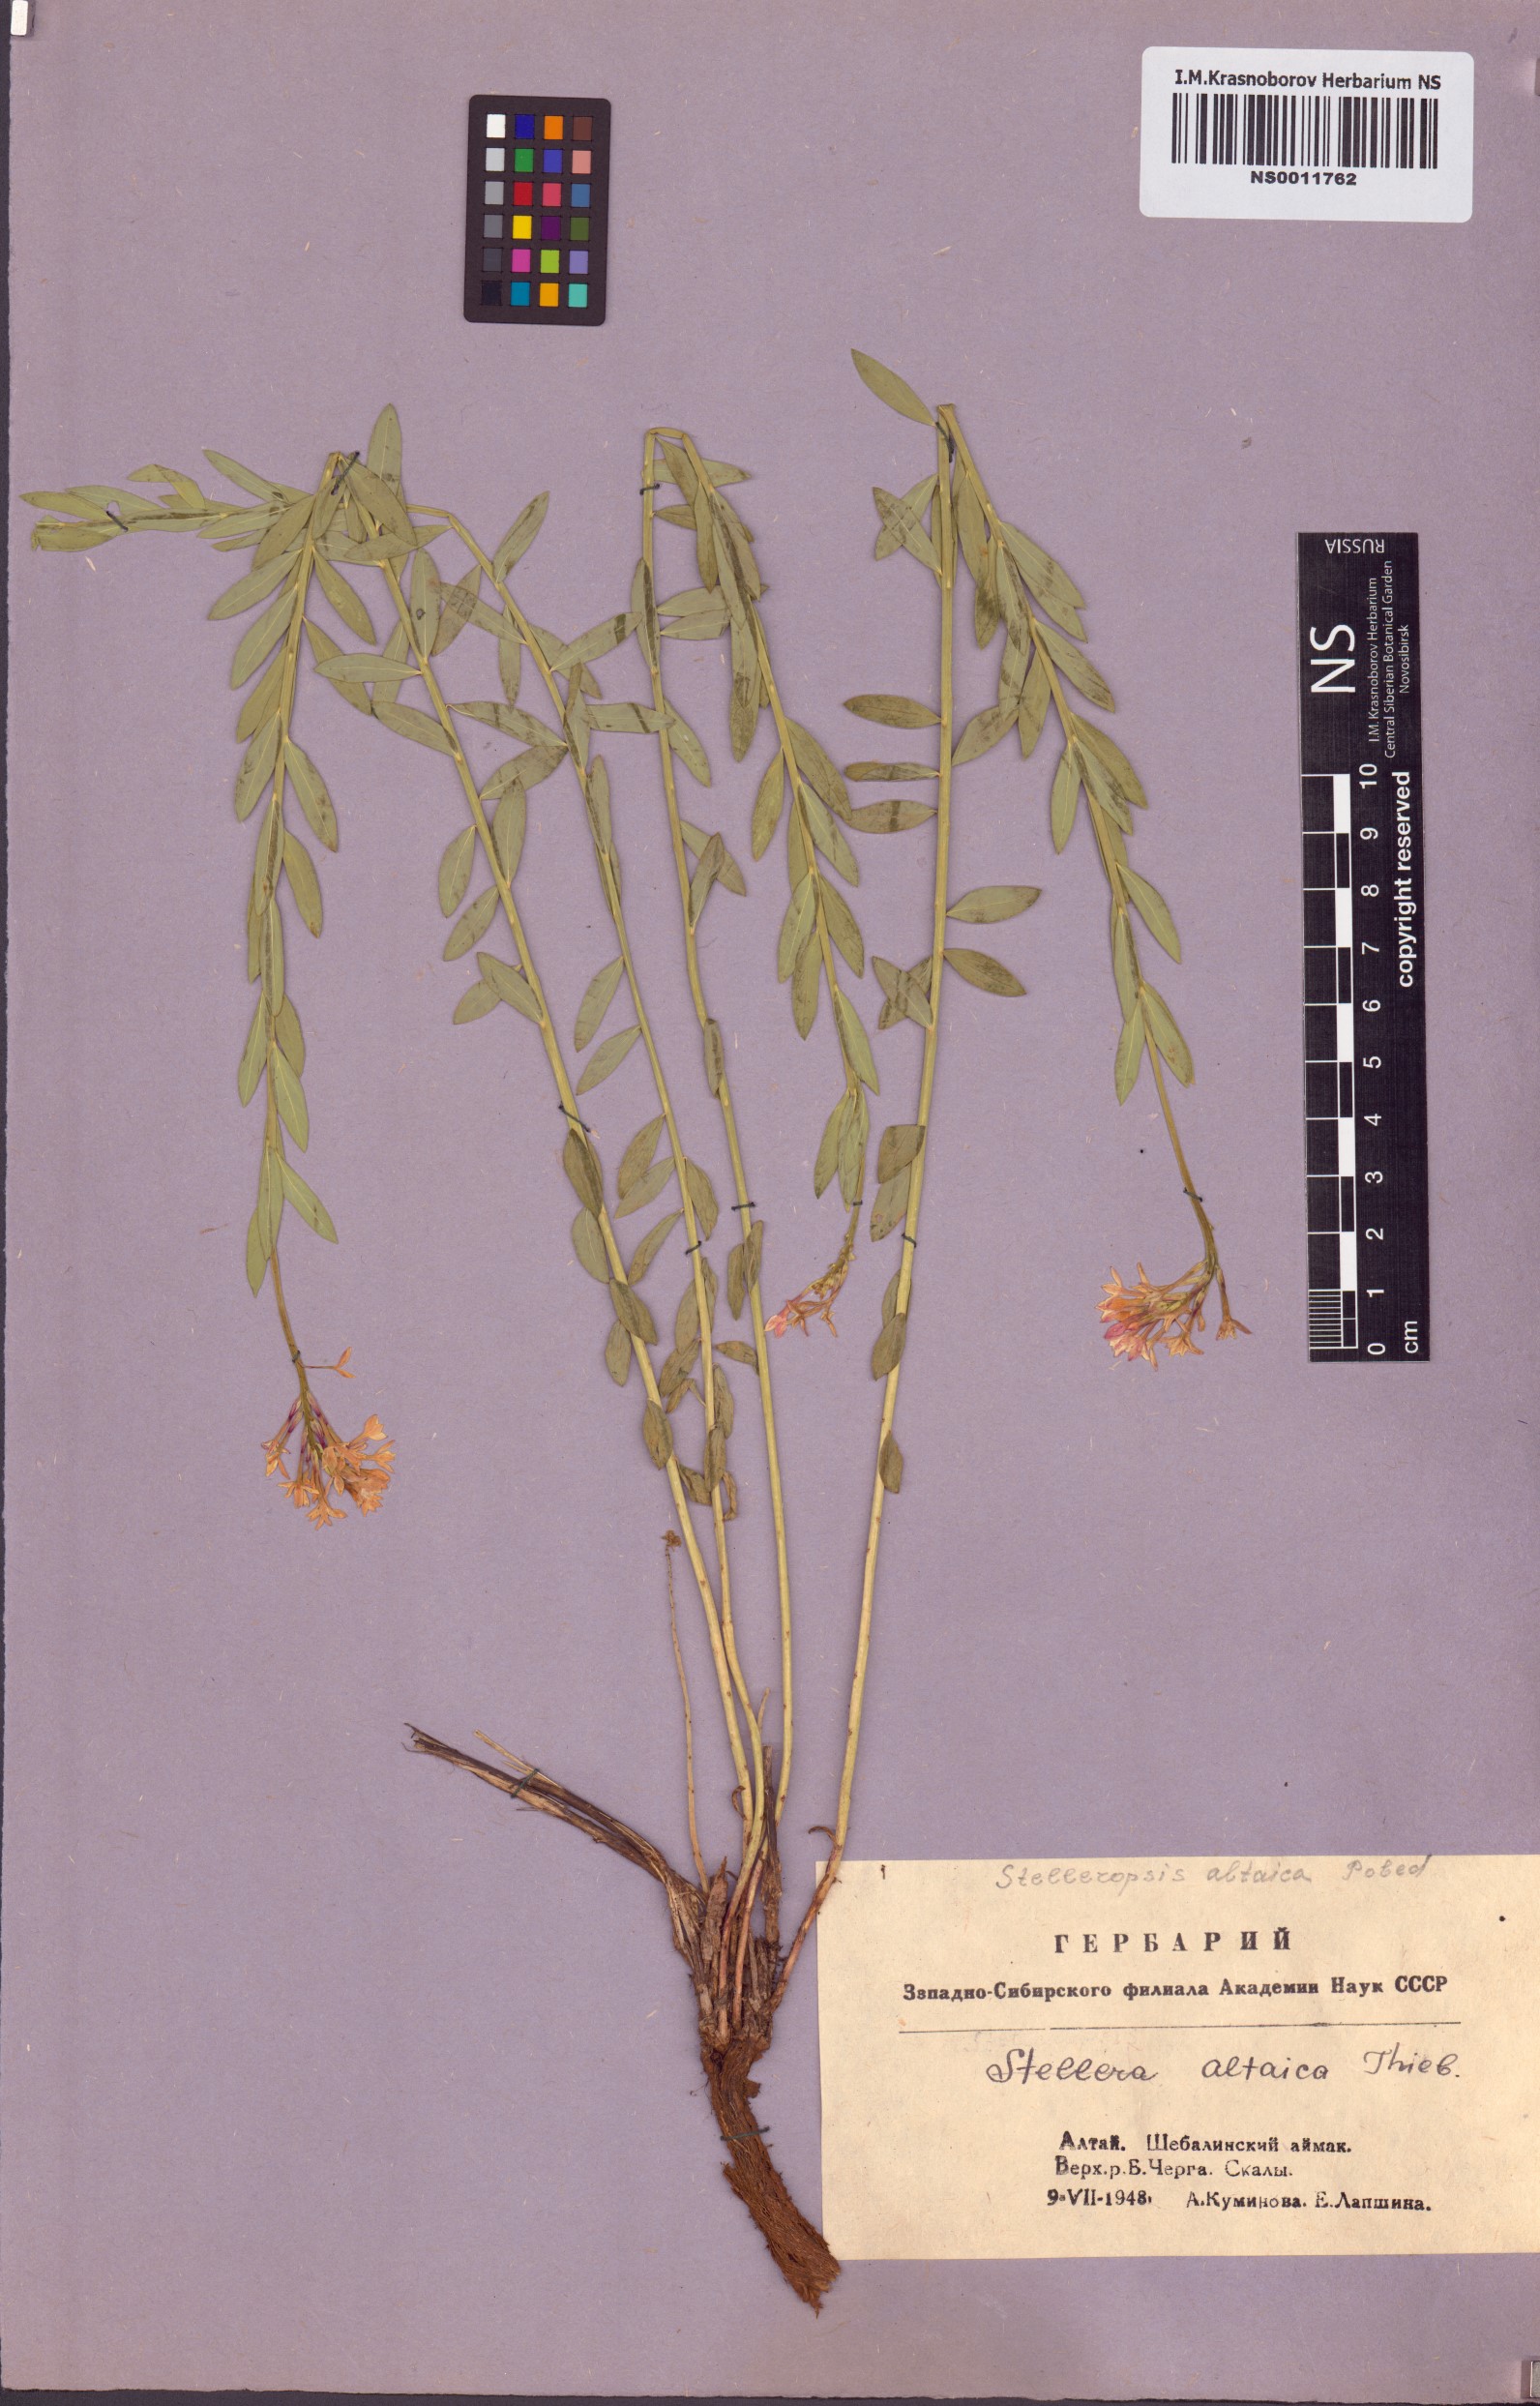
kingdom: Plantae
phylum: Tracheophyta
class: Magnoliopsida
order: Malvales
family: Thymelaeaceae
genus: Diarthron
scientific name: Diarthron altaicum
